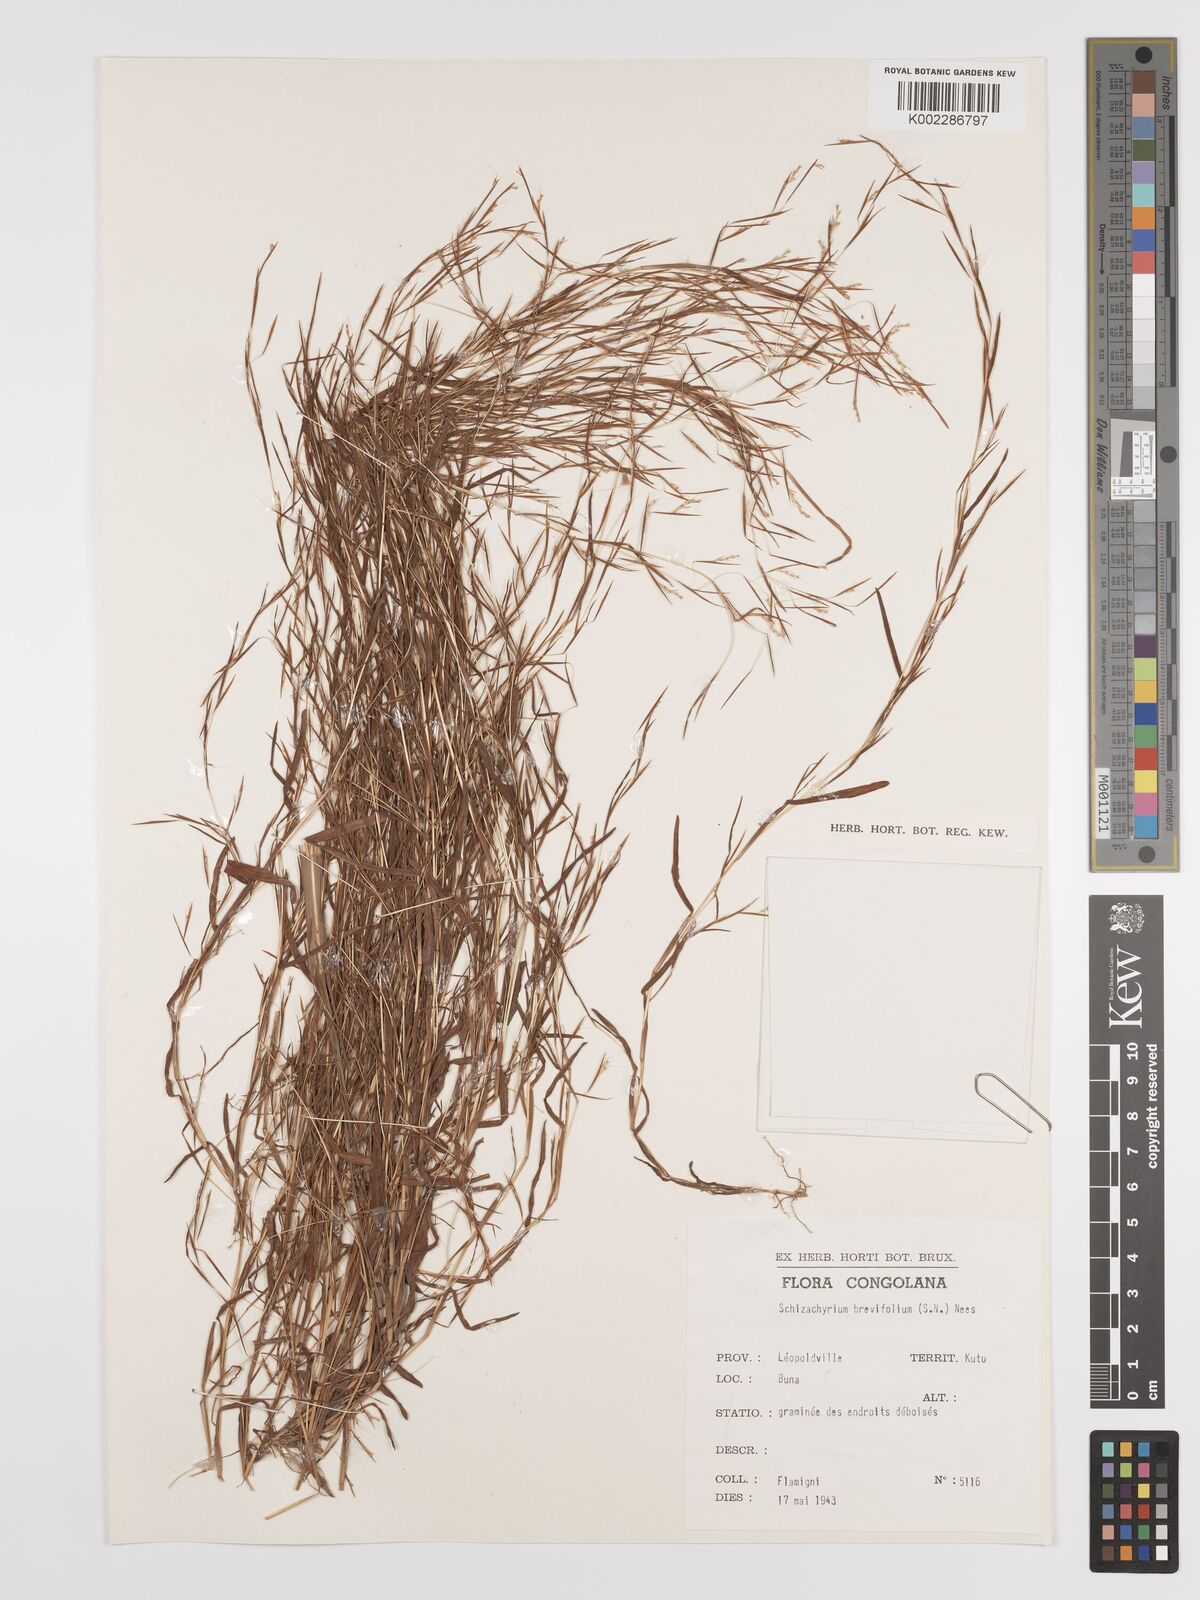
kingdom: Plantae
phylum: Tracheophyta
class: Liliopsida
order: Poales
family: Poaceae
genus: Schizachyrium
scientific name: Schizachyrium brevifolium
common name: Serillo dulce
